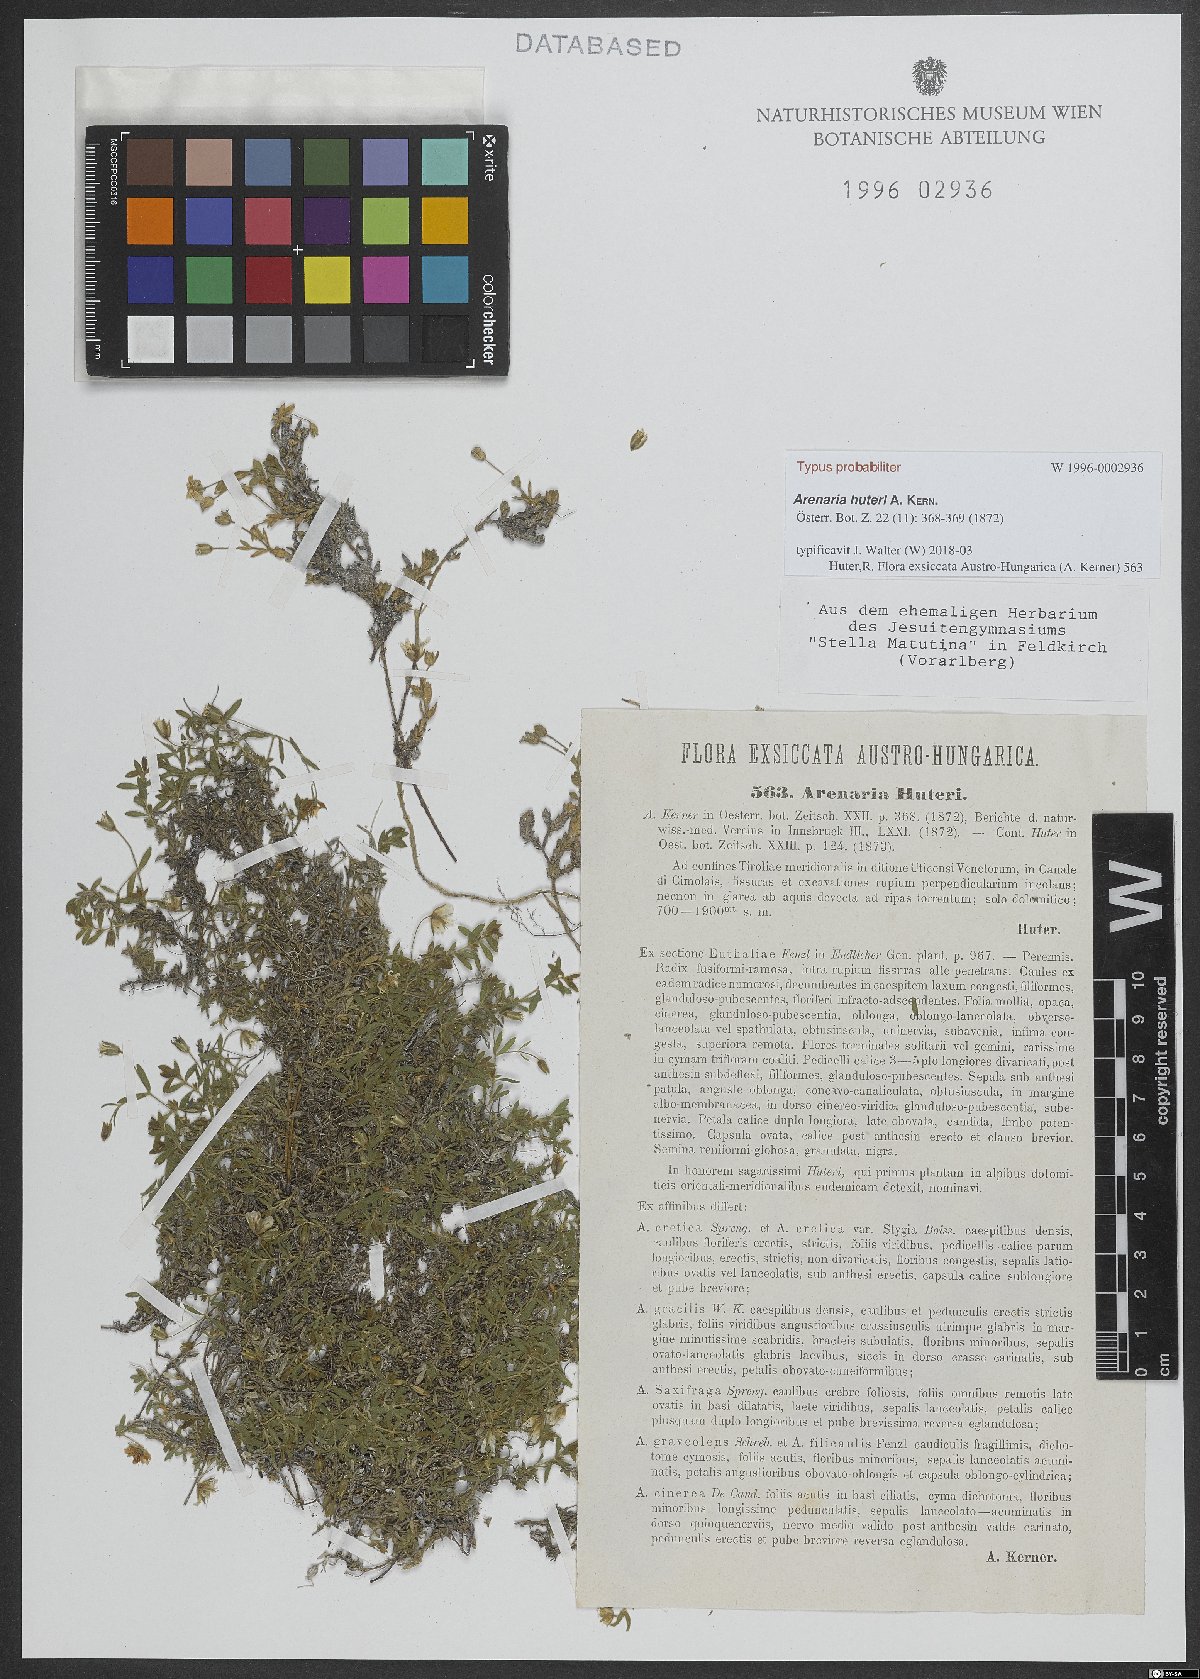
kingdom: Plantae
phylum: Tracheophyta
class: Magnoliopsida
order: Caryophyllales
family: Caryophyllaceae
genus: Arenaria
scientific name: Arenaria huteri
